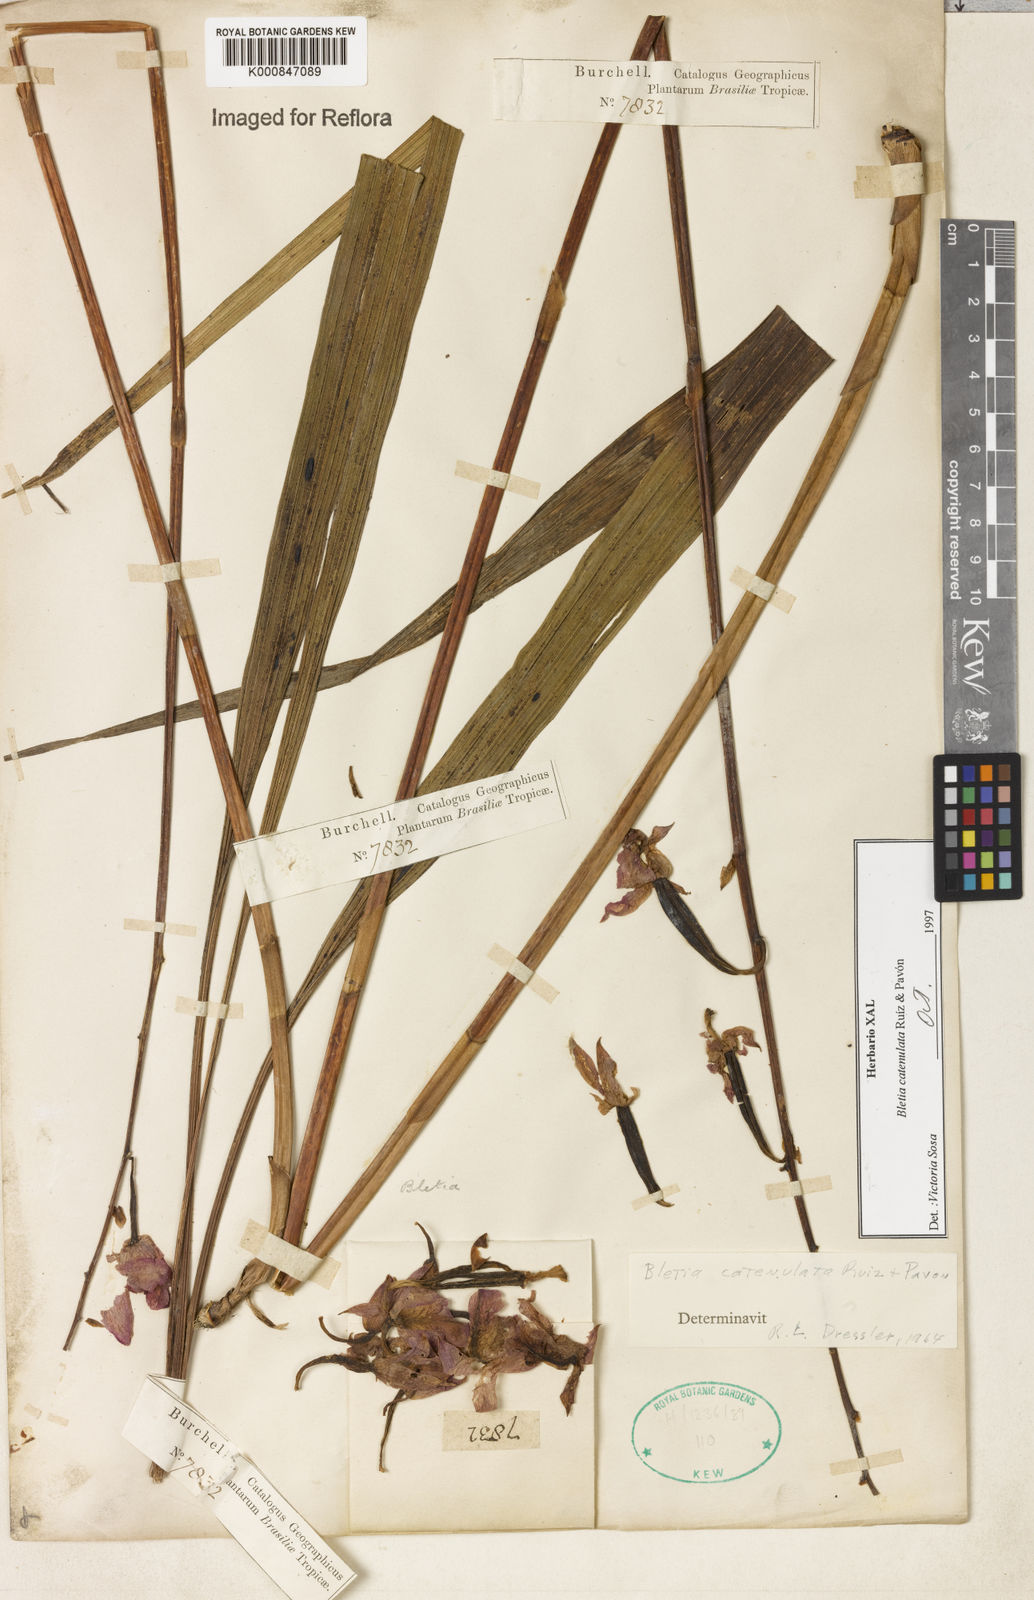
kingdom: Plantae
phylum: Tracheophyta
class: Liliopsida
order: Asparagales
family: Orchidaceae
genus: Bletia
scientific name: Bletia
